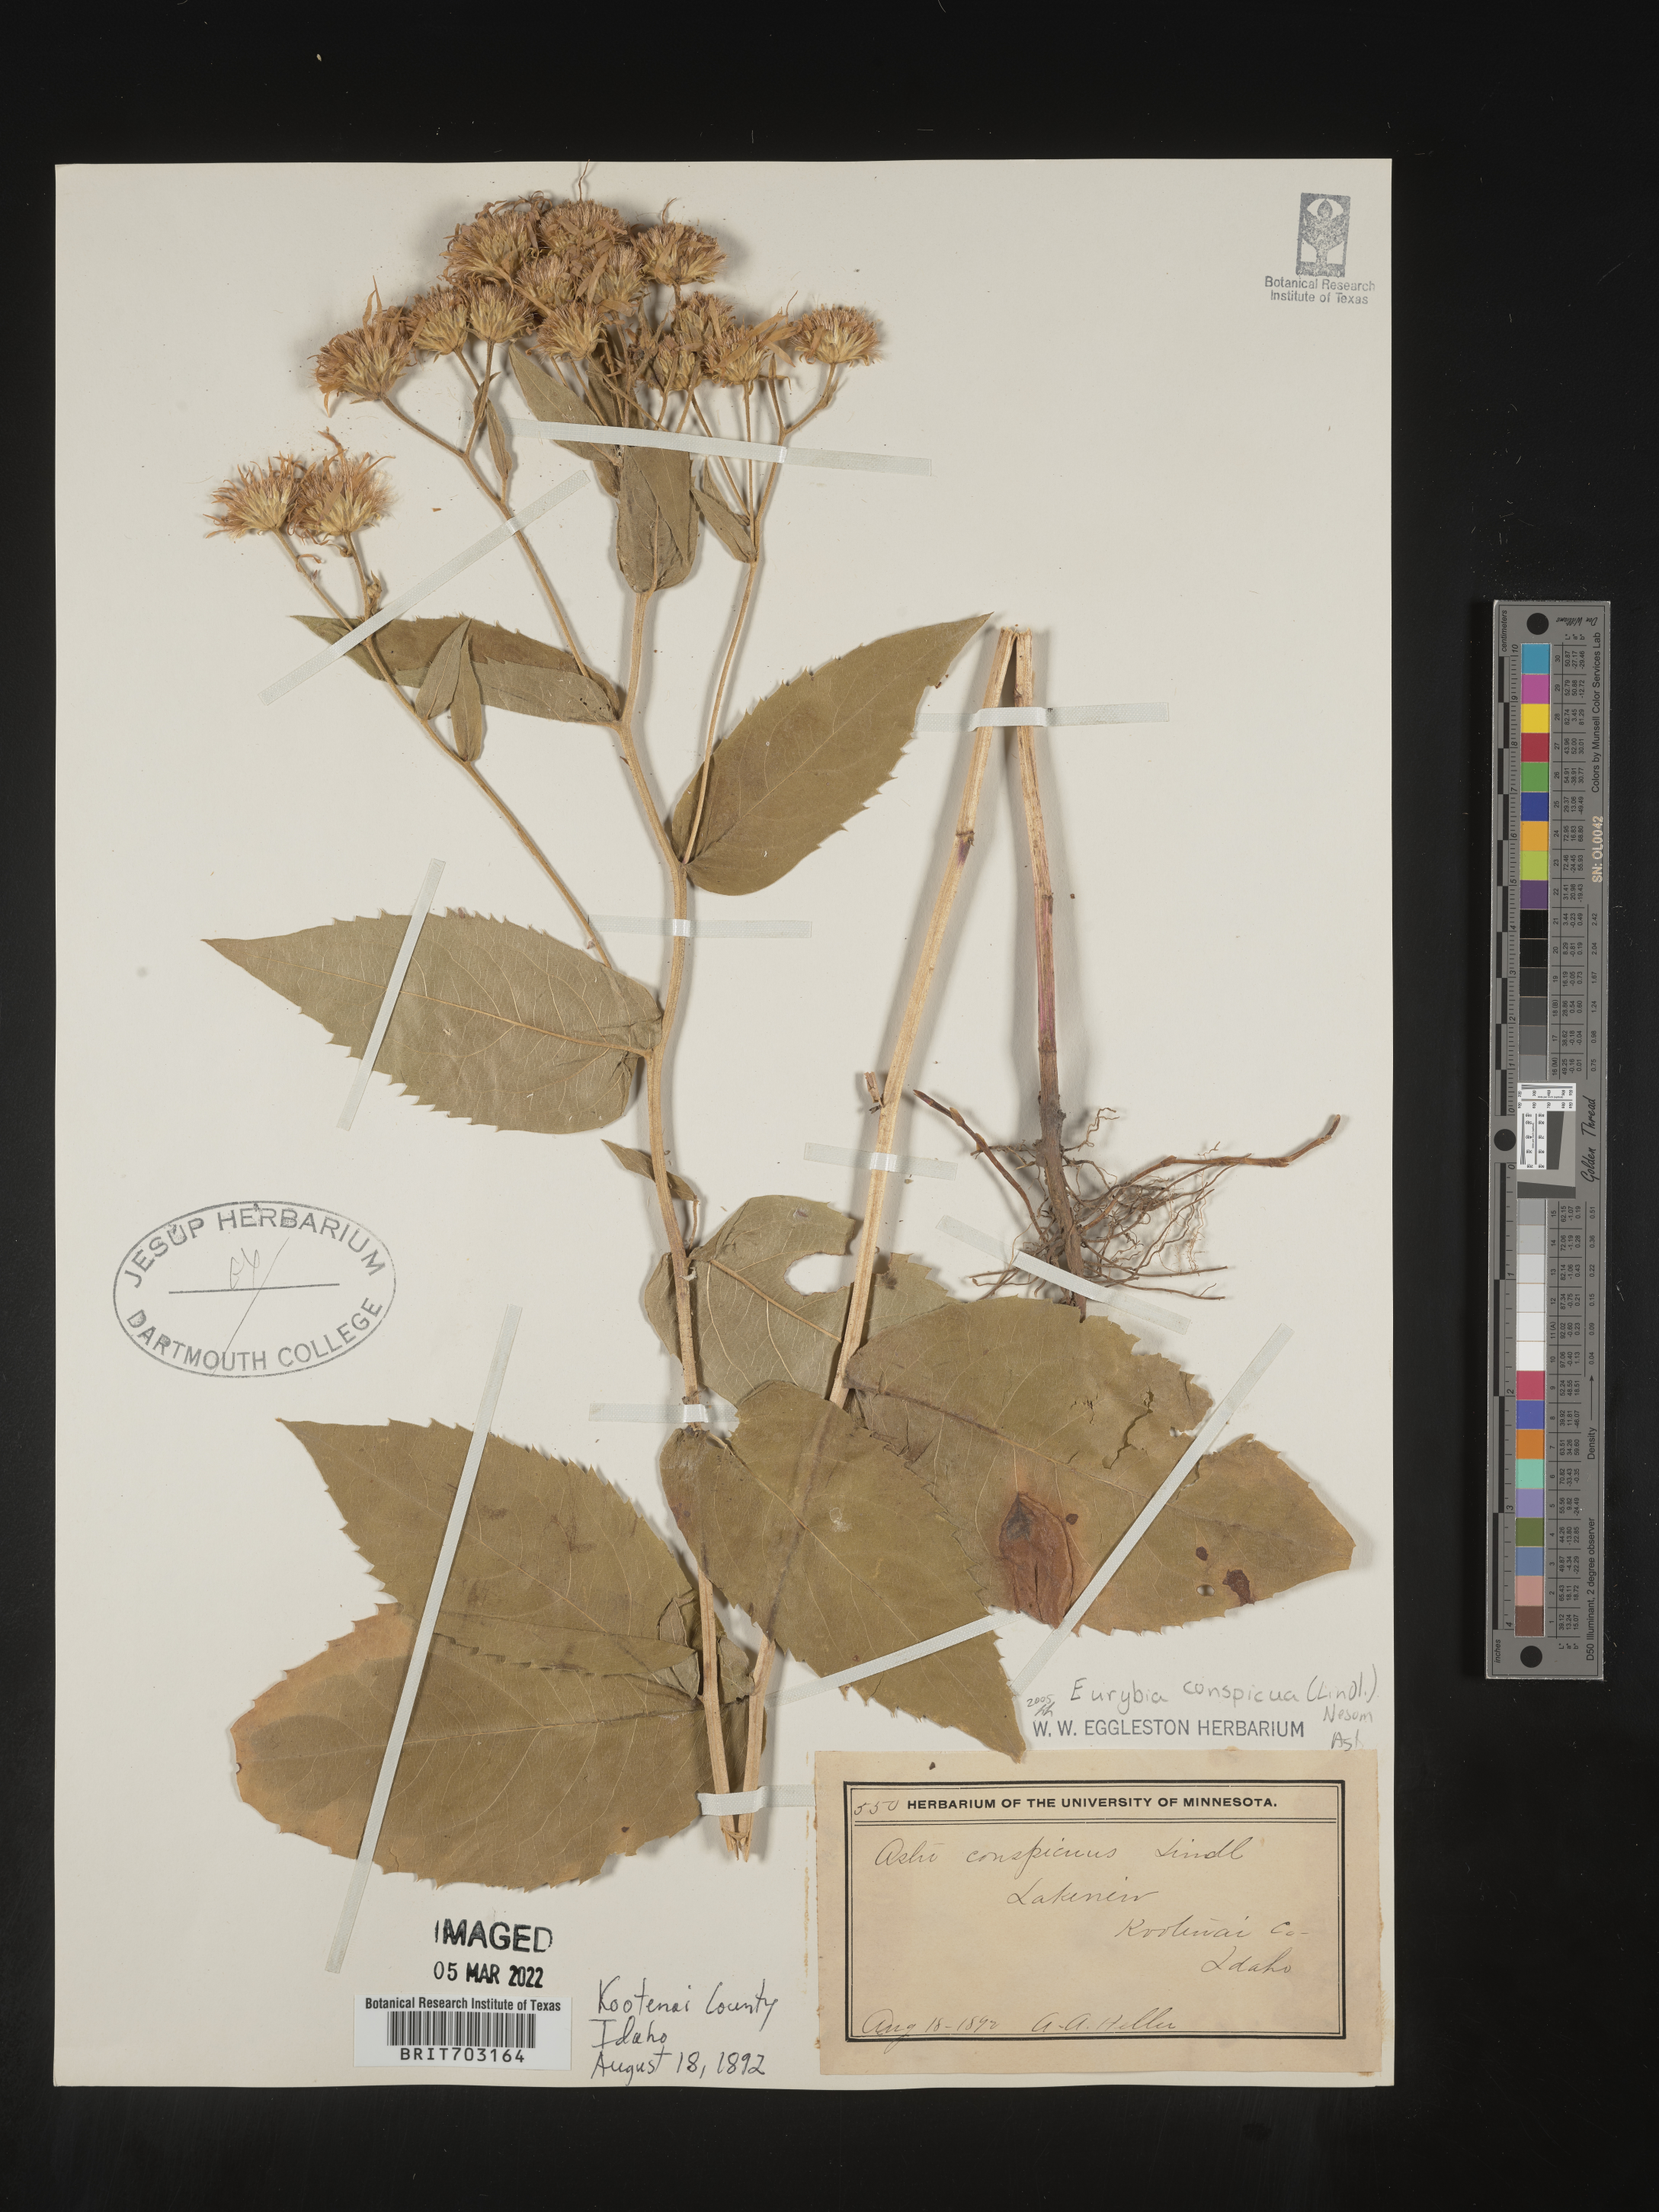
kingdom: Plantae
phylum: Tracheophyta
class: Magnoliopsida
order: Asterales
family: Asteraceae
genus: Eurybia
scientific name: Eurybia conspicua
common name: Showy aster
